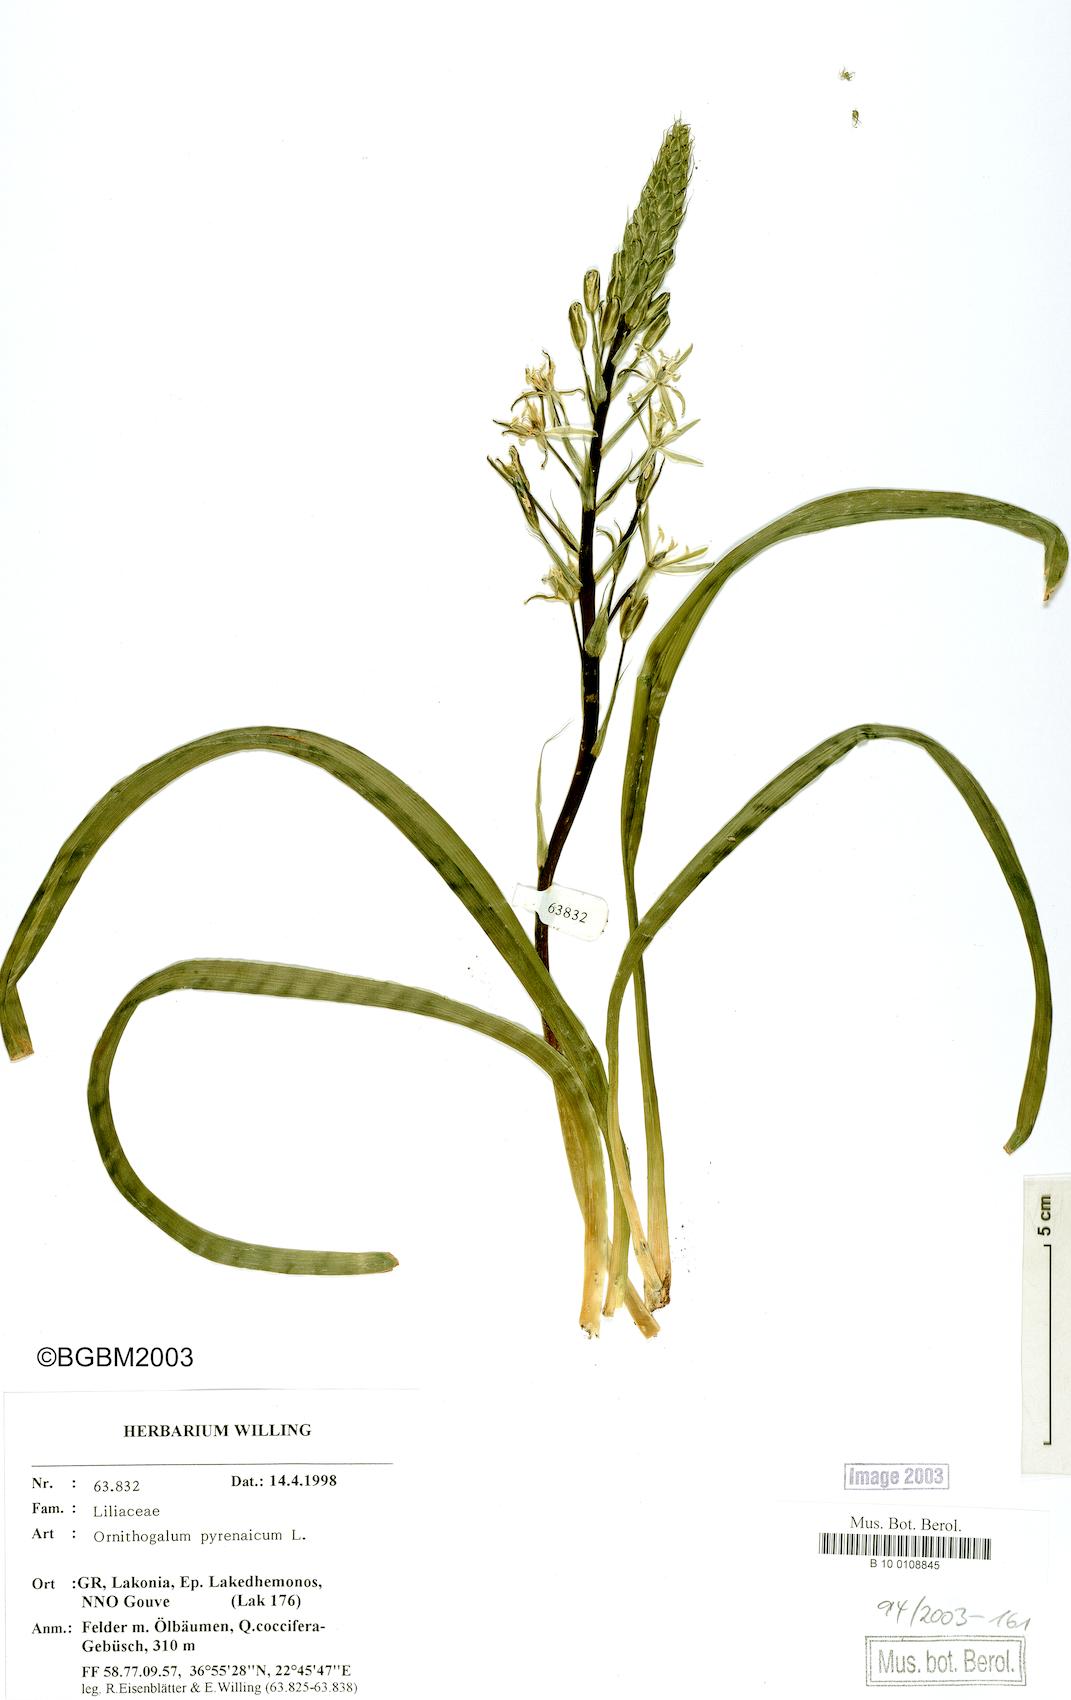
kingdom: Plantae
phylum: Tracheophyta
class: Liliopsida
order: Asparagales
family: Asparagaceae
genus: Ornithogalum
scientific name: Ornithogalum pyrenaicum
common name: Spiked star-of-bethlehem
